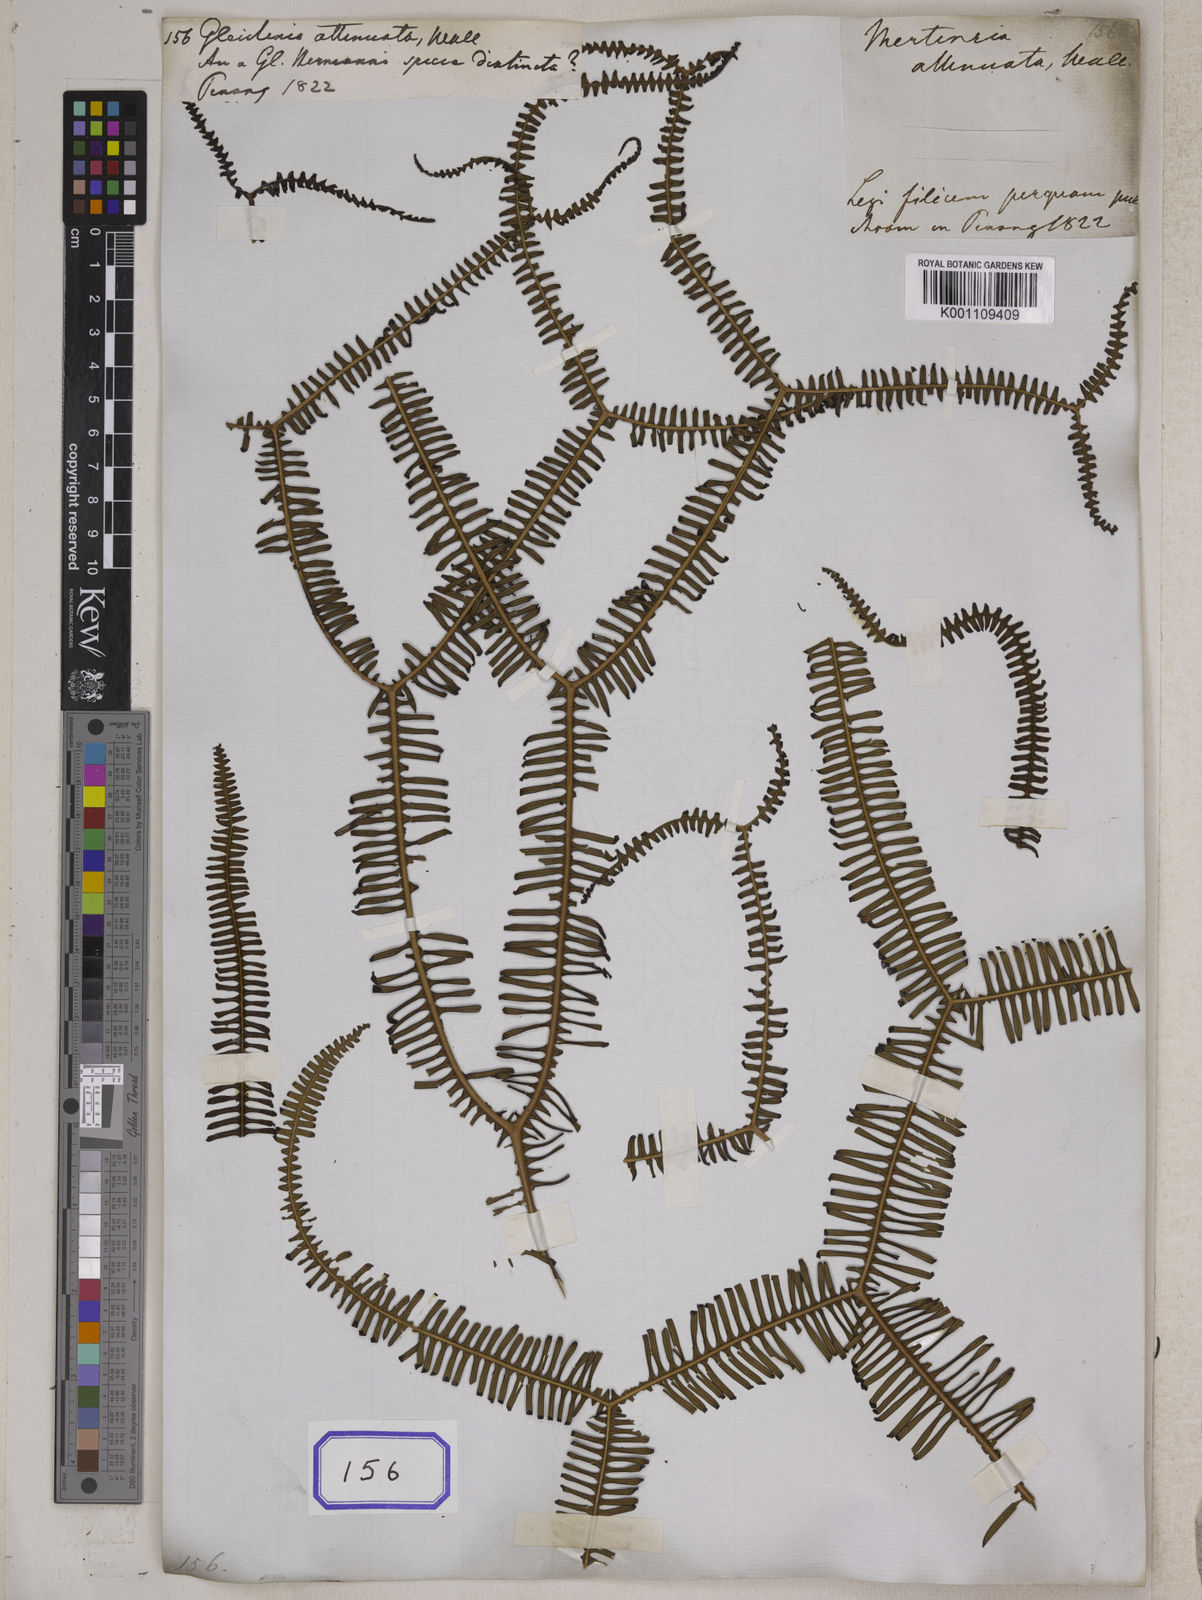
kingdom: Plantae
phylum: Tracheophyta
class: Polypodiopsida
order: Gleicheniales
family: Gleicheniaceae
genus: Sticherus
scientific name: Sticherus flagellaris
